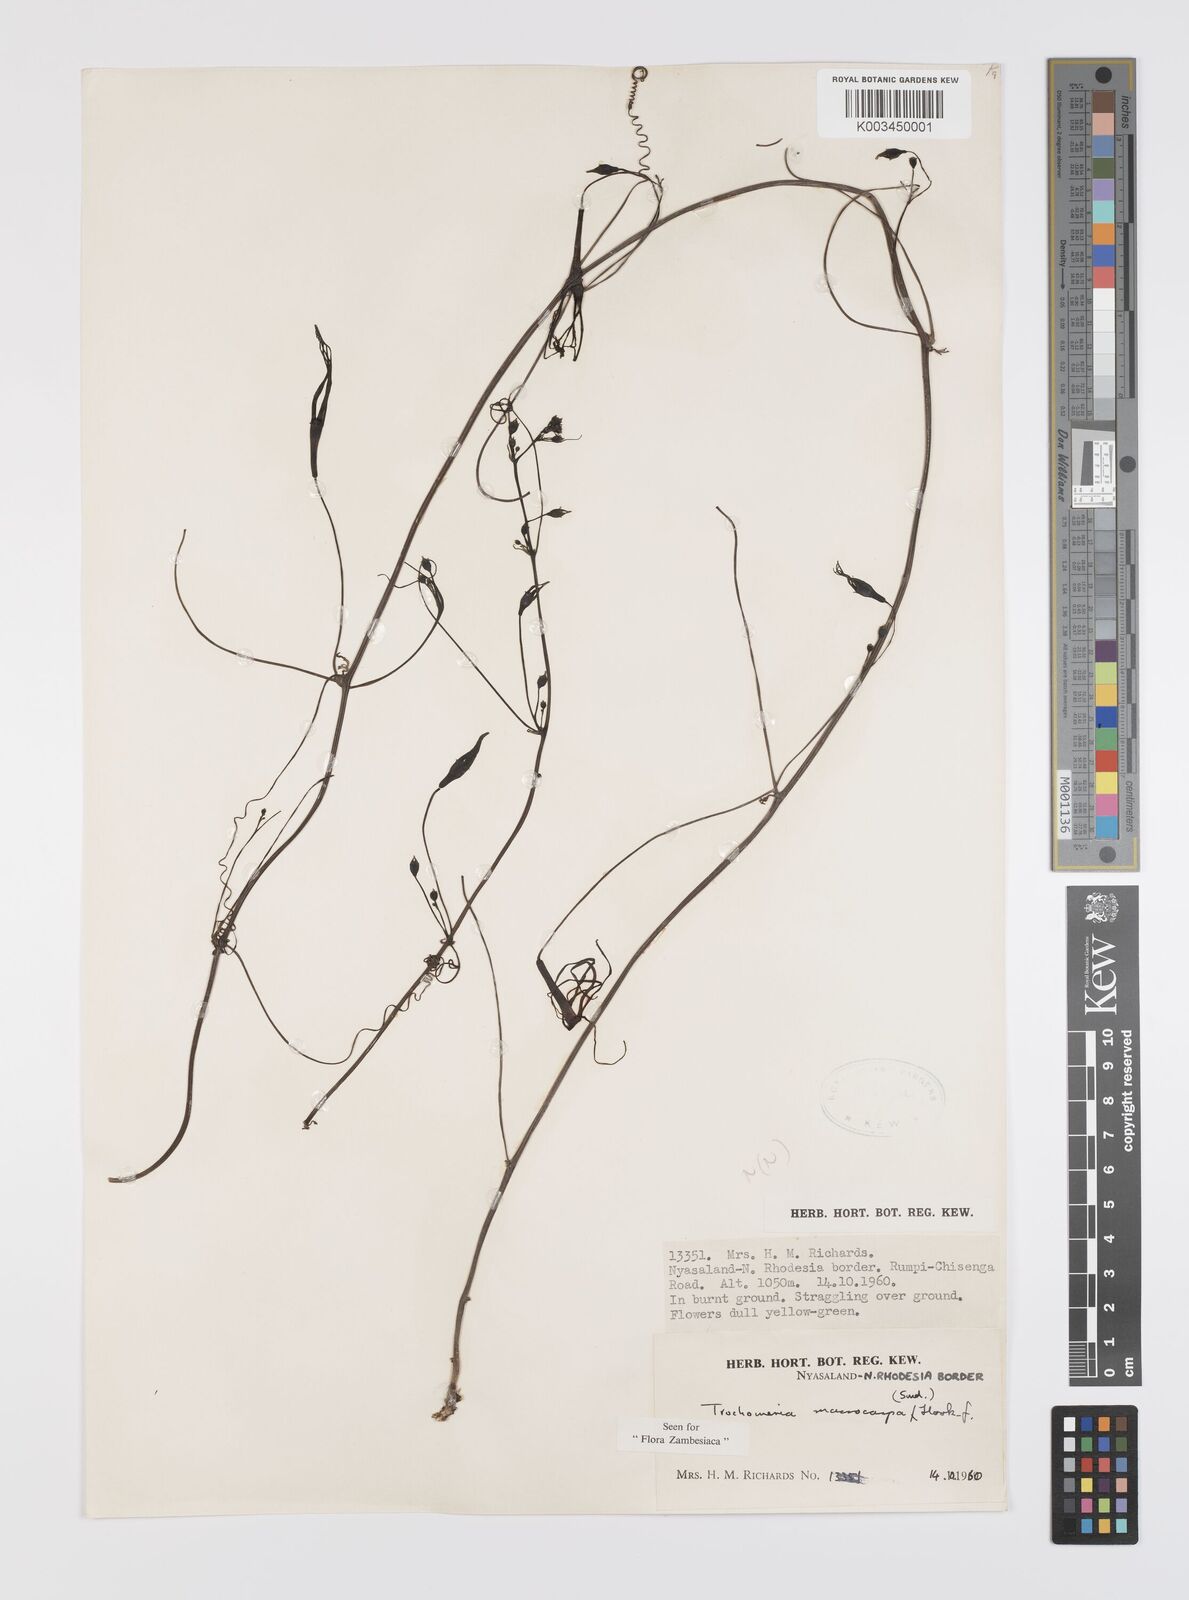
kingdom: Plantae
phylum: Tracheophyta
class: Magnoliopsida
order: Cucurbitales
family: Cucurbitaceae
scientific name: Cucurbitaceae
